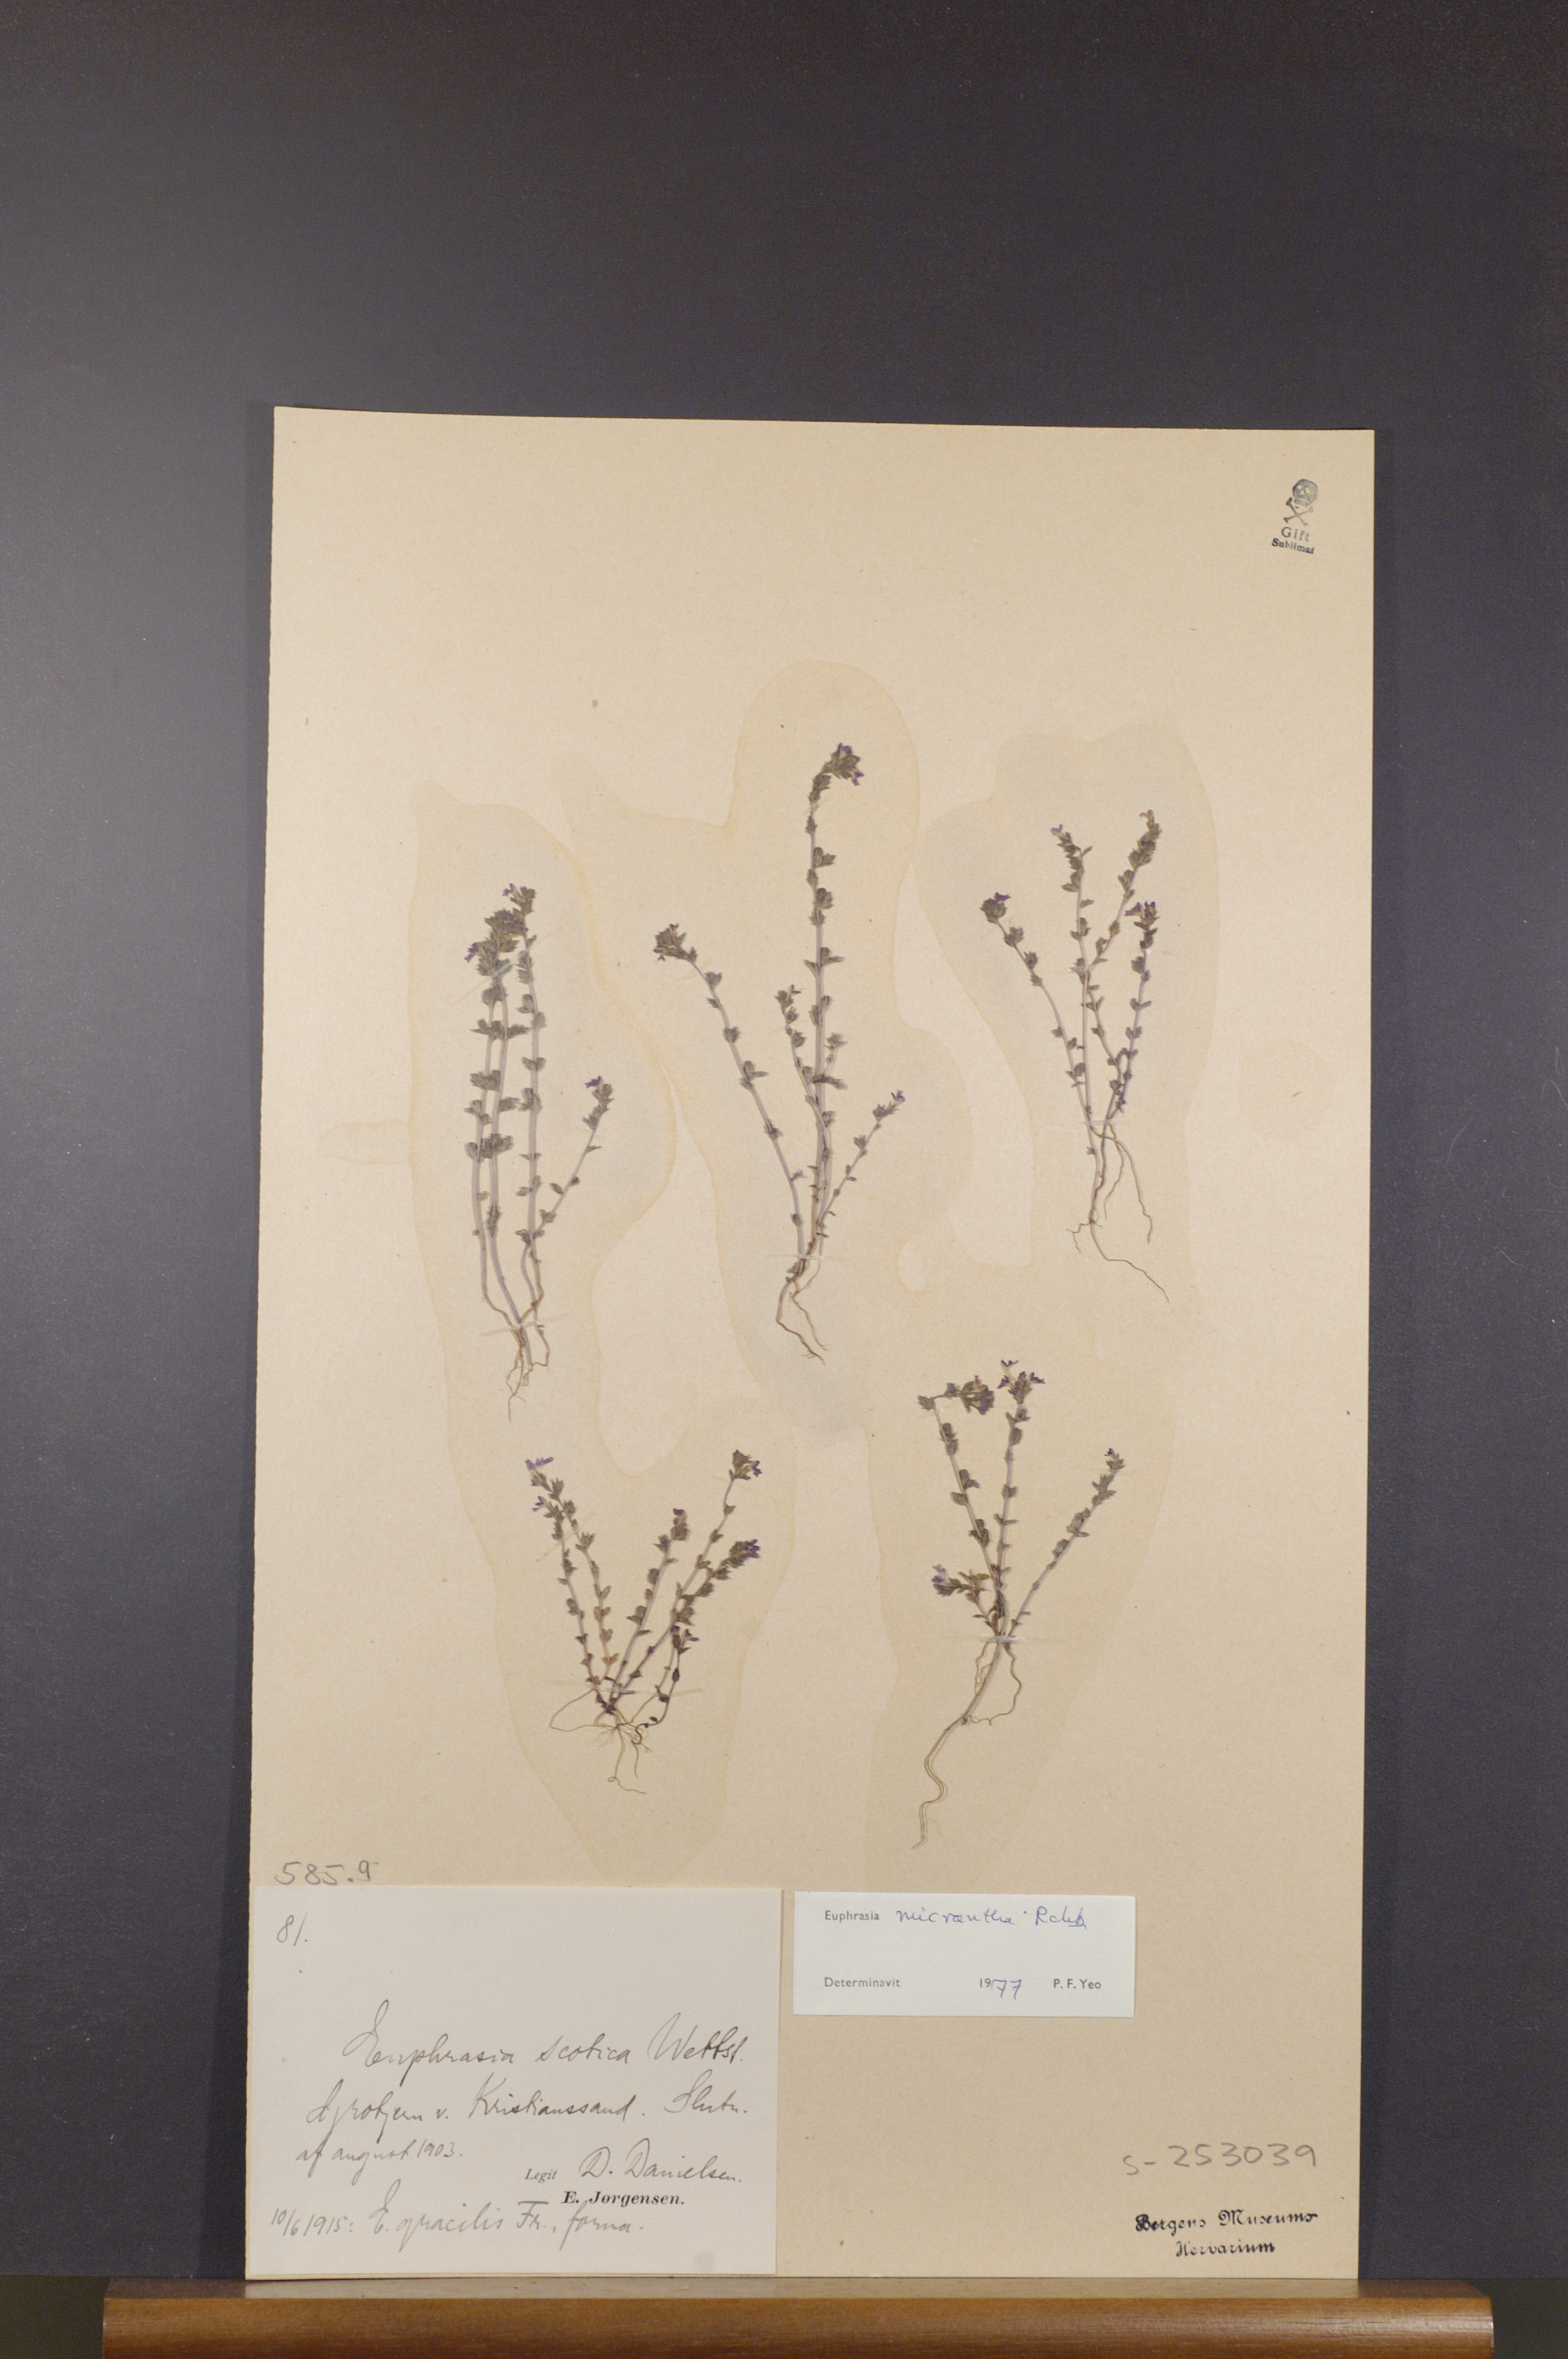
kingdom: Plantae
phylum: Tracheophyta
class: Magnoliopsida
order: Lamiales
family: Orobanchaceae
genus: Euphrasia
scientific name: Euphrasia micrantha
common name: Northern eyebright
